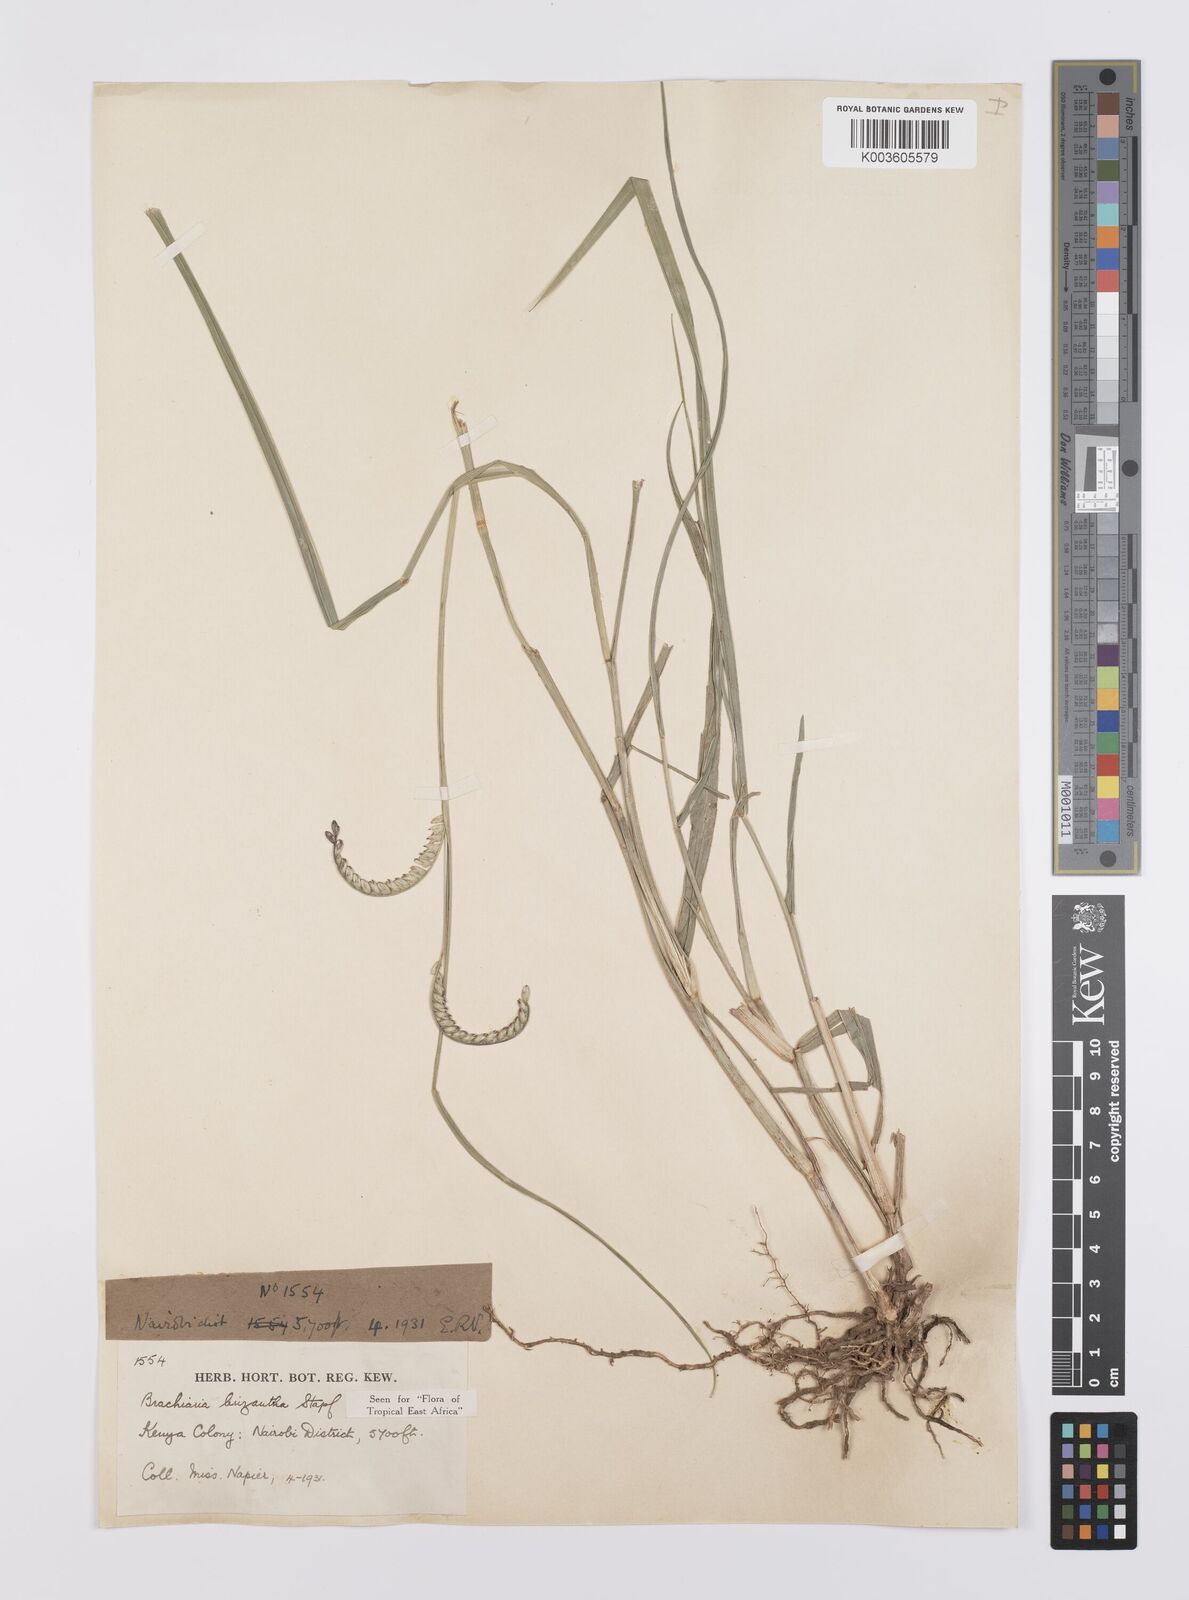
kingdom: Plantae
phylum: Tracheophyta
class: Liliopsida
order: Poales
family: Poaceae
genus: Urochloa
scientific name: Urochloa brizantha
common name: Palisade signalgrass
